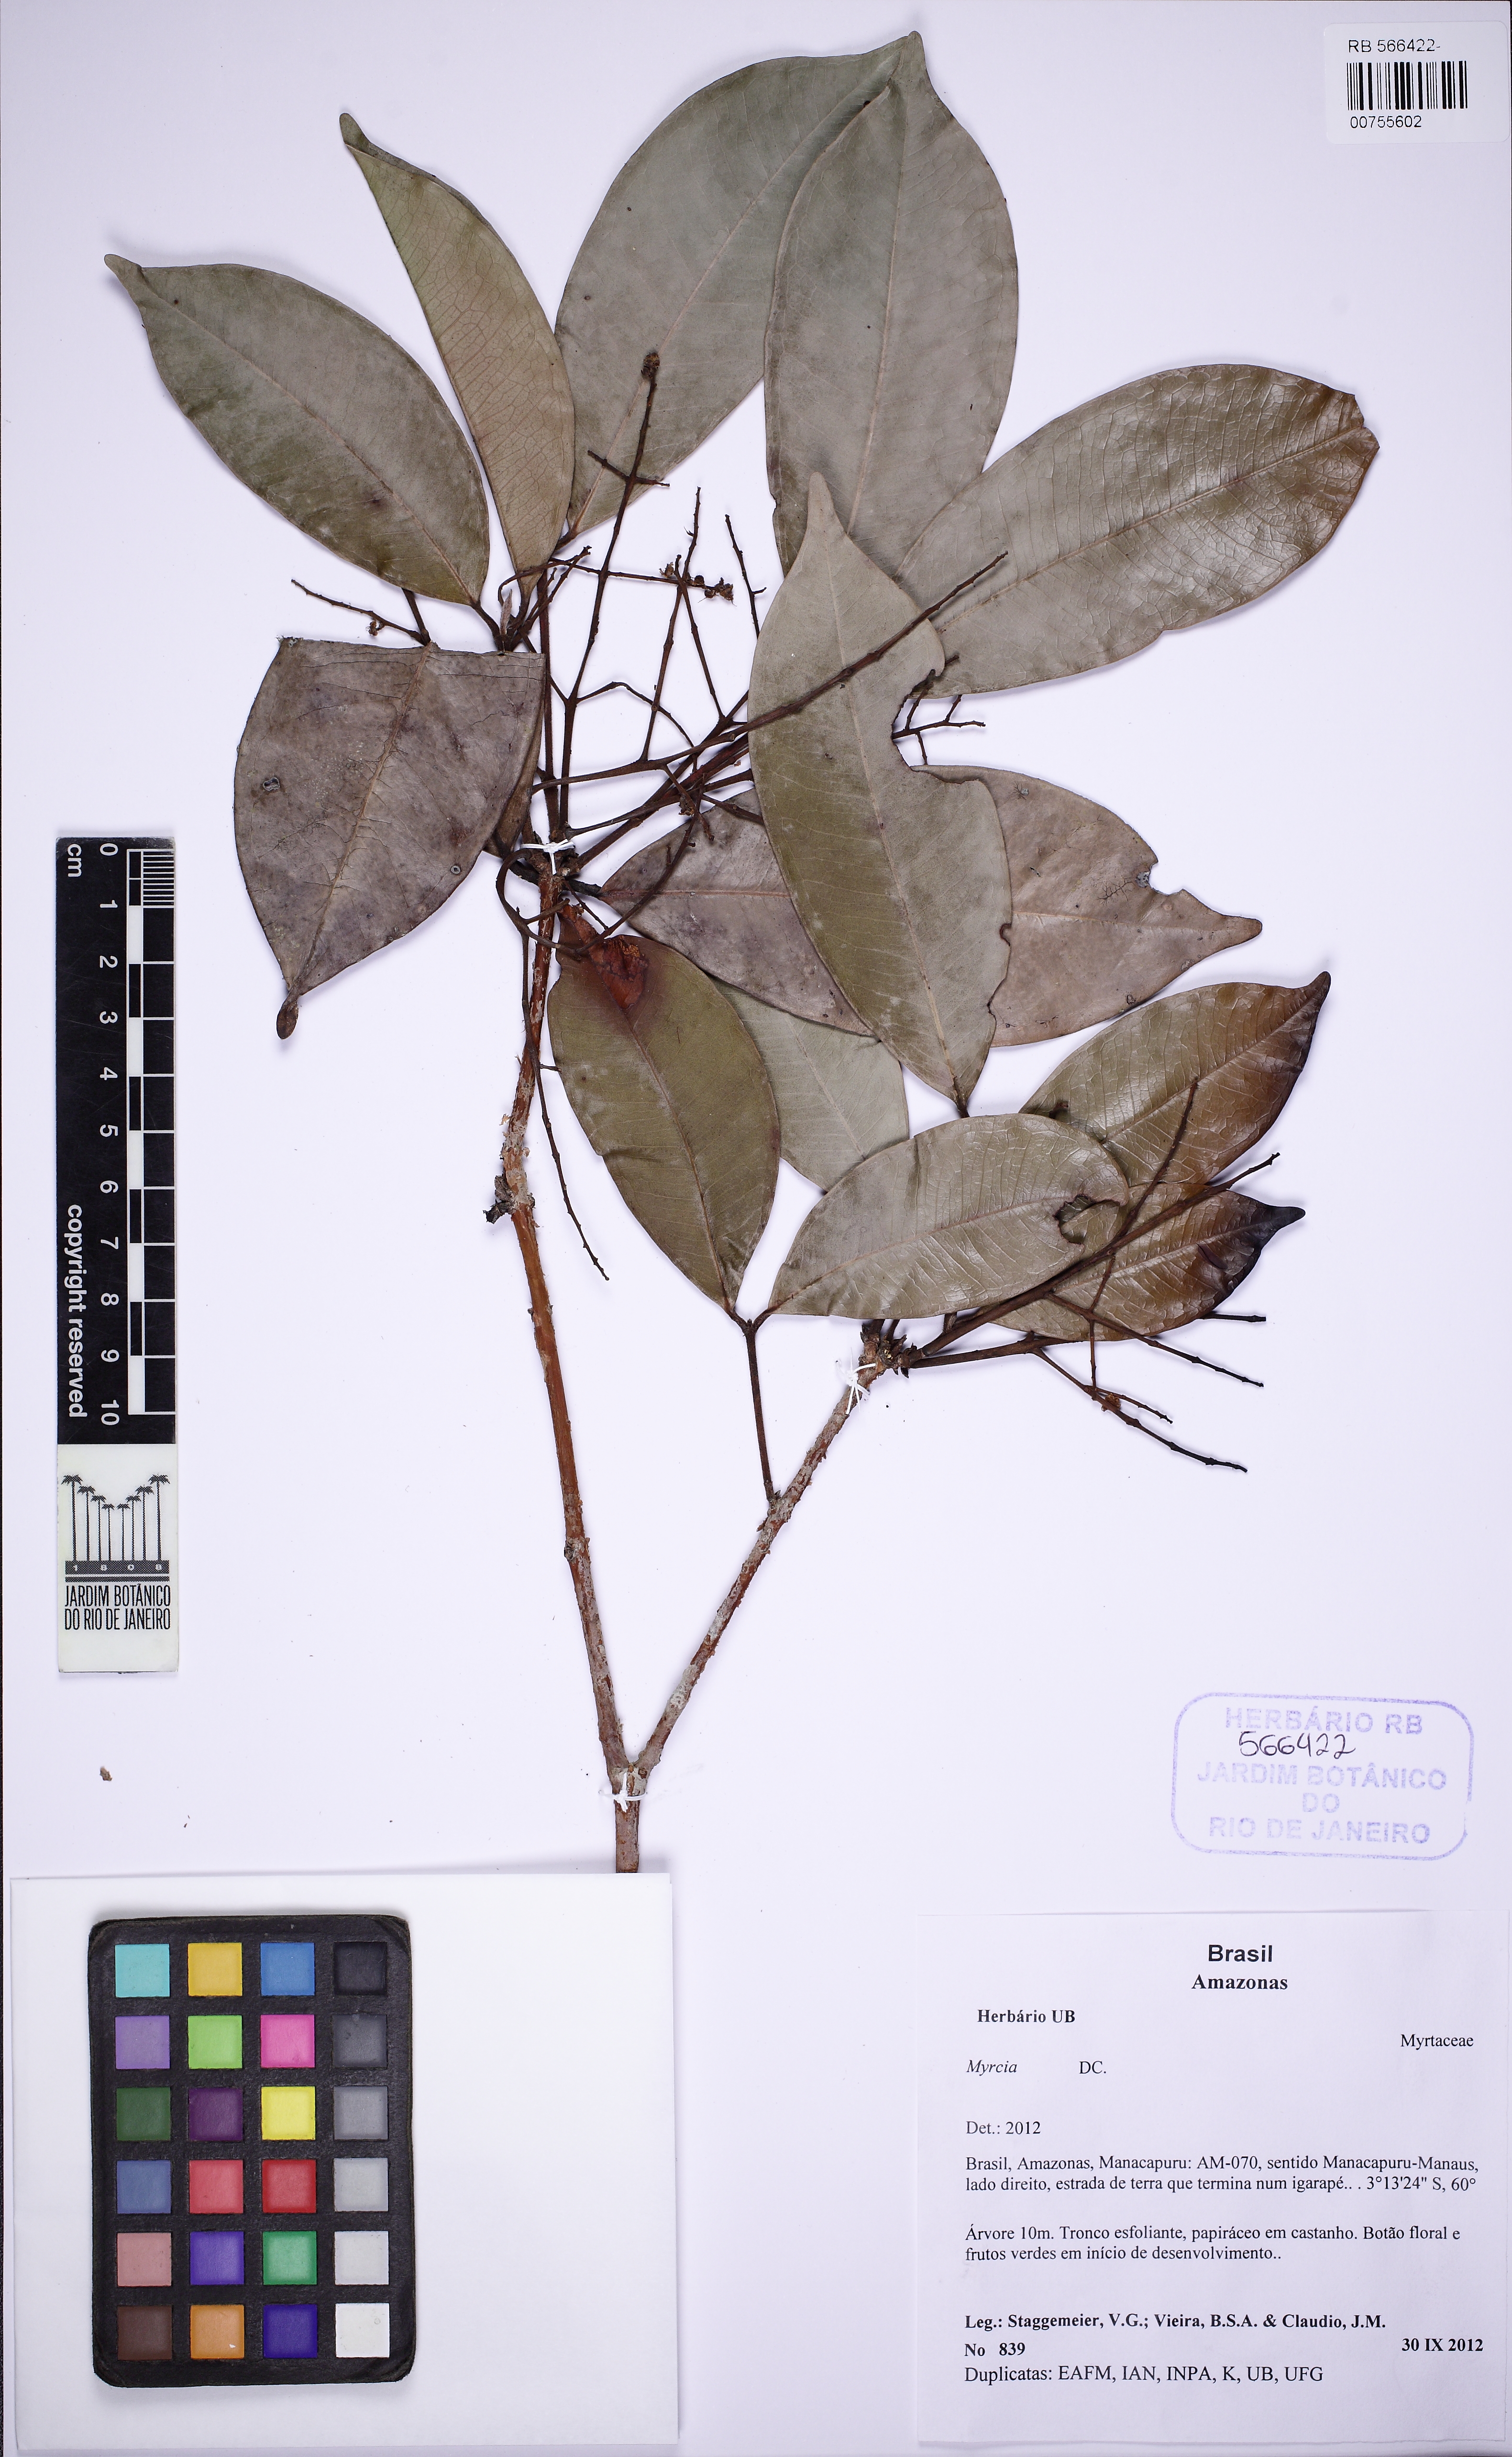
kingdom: Plantae
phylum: Tracheophyta
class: Magnoliopsida
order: Myrtales
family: Myrtaceae
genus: Myrcia
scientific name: Myrcia amazonica
